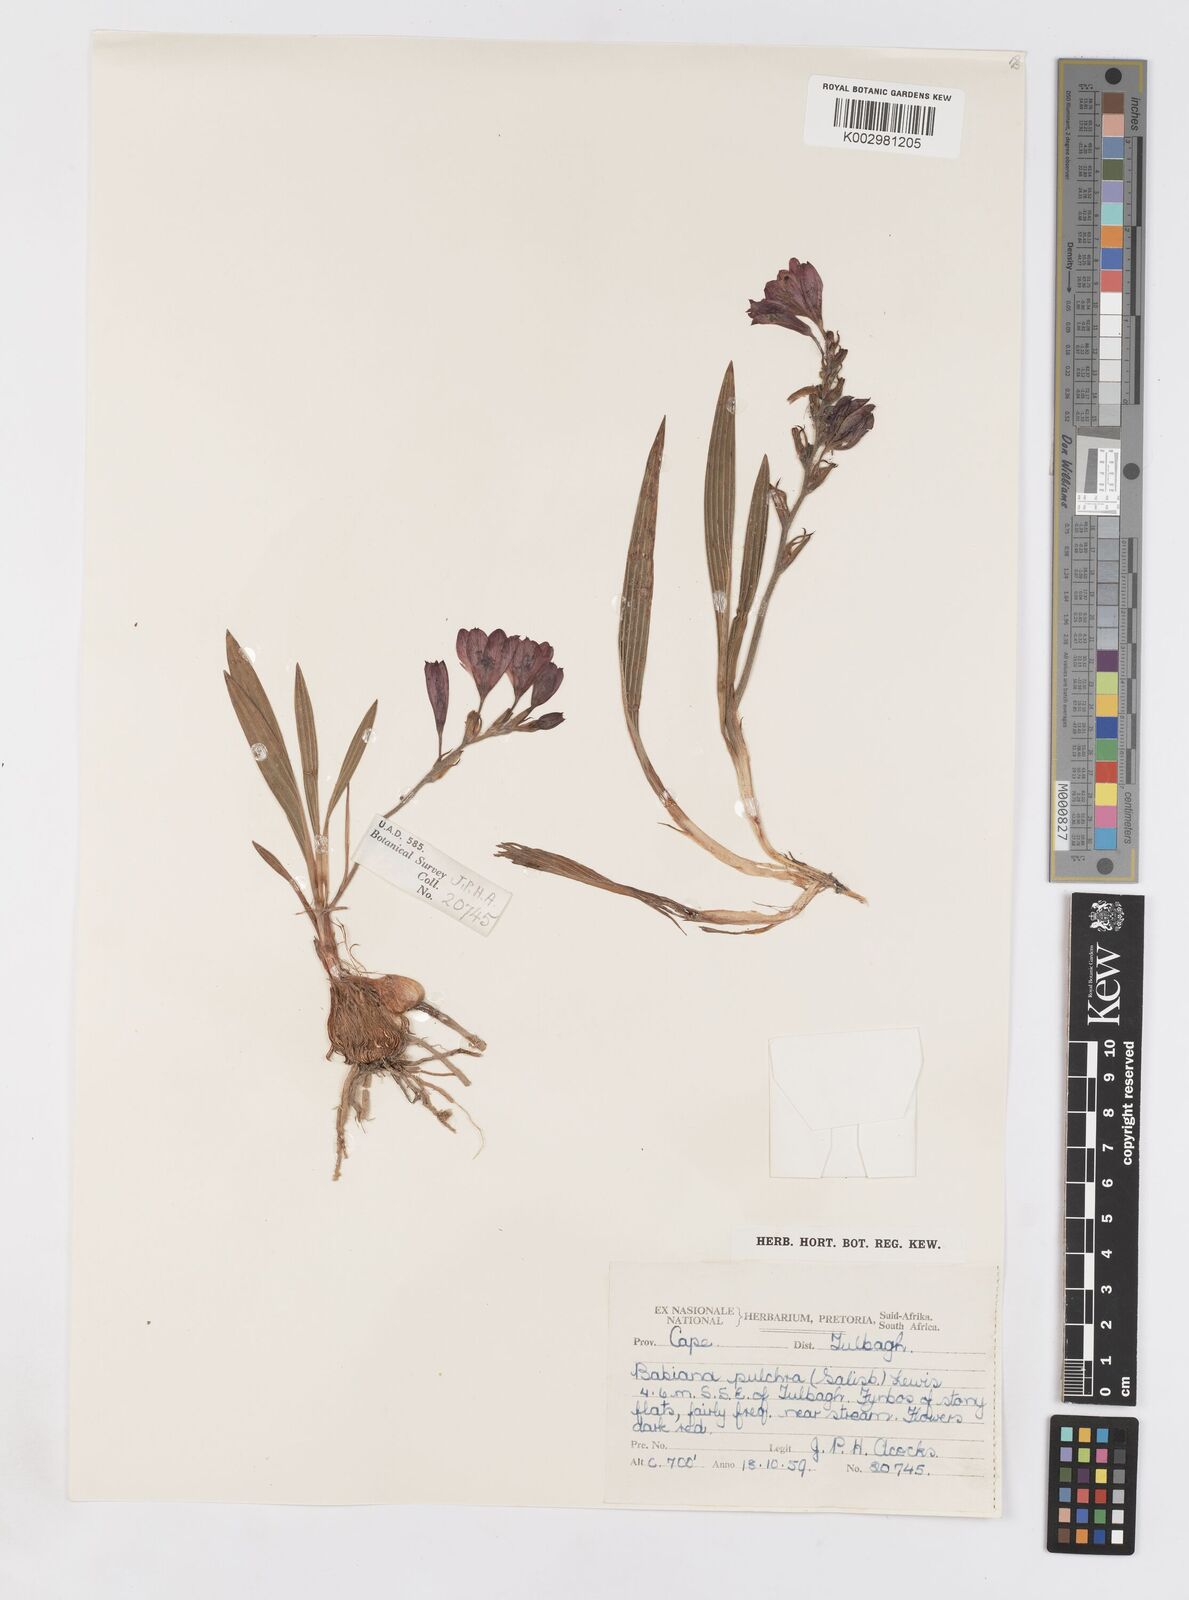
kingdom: Plantae
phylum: Tracheophyta
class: Liliopsida
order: Asparagales
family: Iridaceae
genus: Babiana
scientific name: Babiana angustifolia
